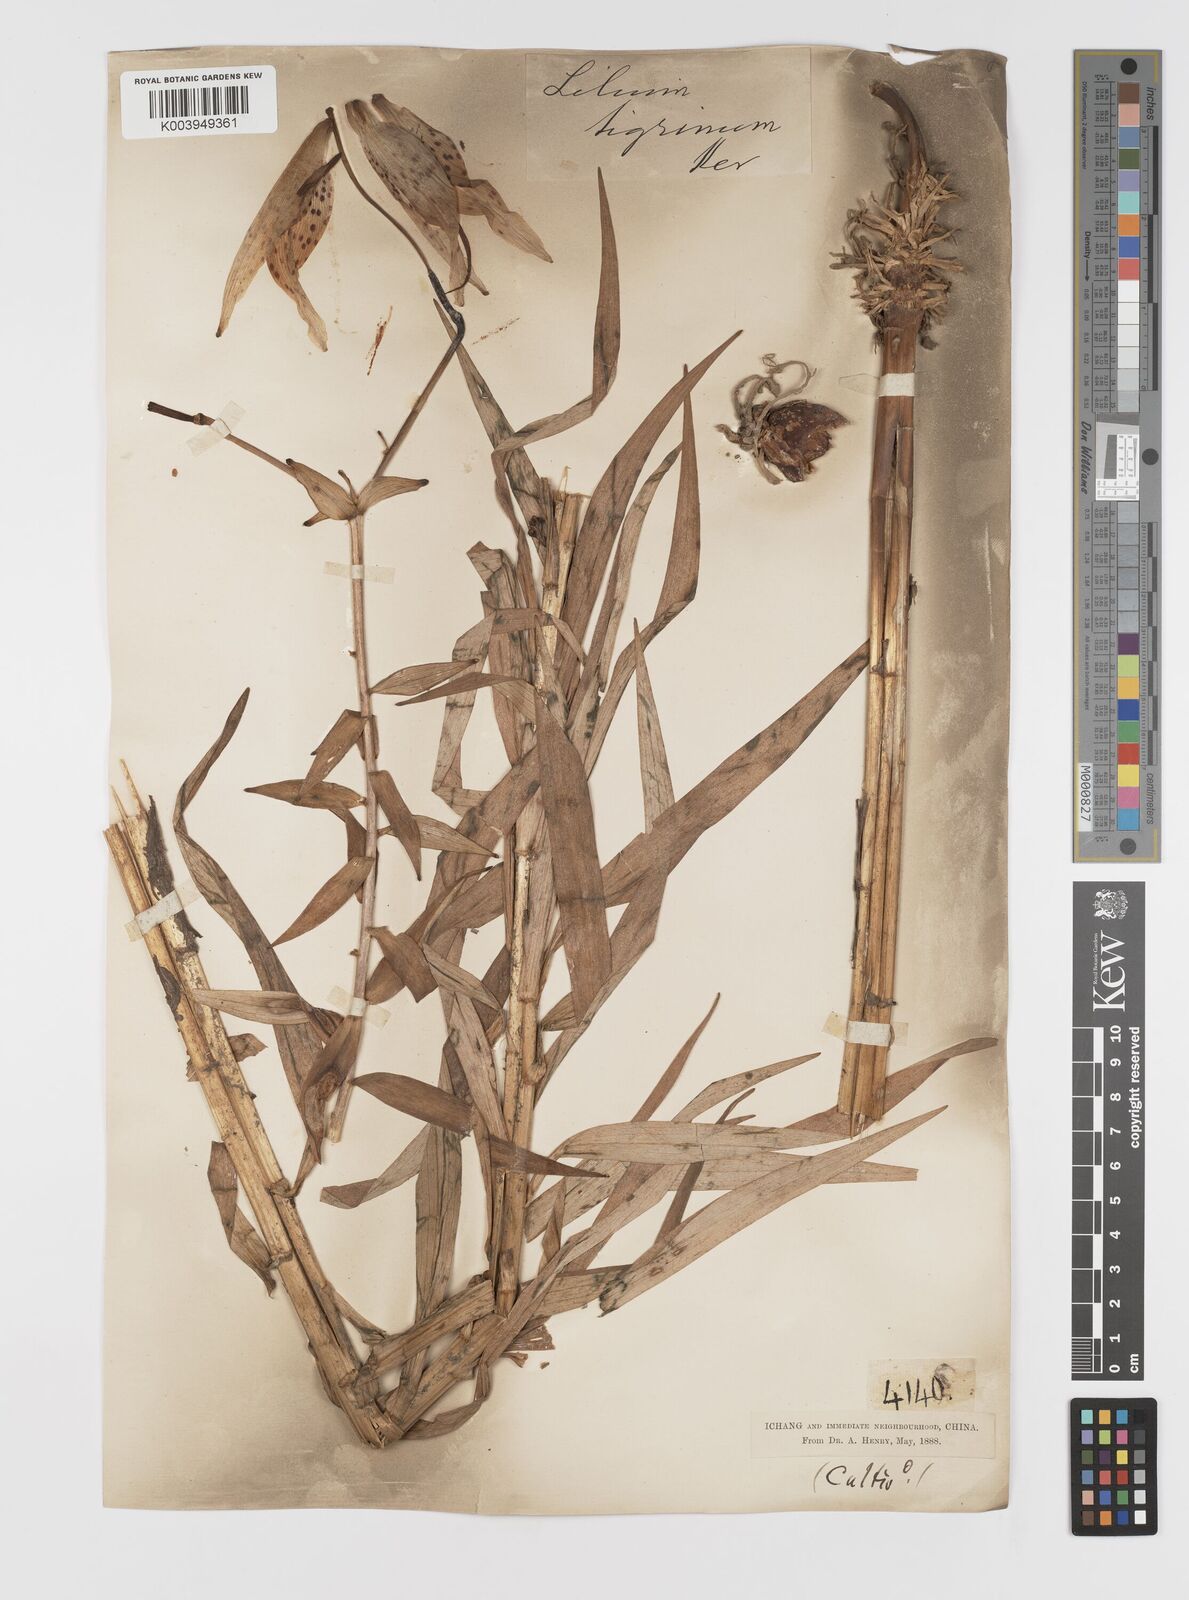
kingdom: Plantae
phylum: Tracheophyta
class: Liliopsida
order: Liliales
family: Liliaceae
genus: Lilium
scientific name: Lilium lancifolium
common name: Tiger lily
